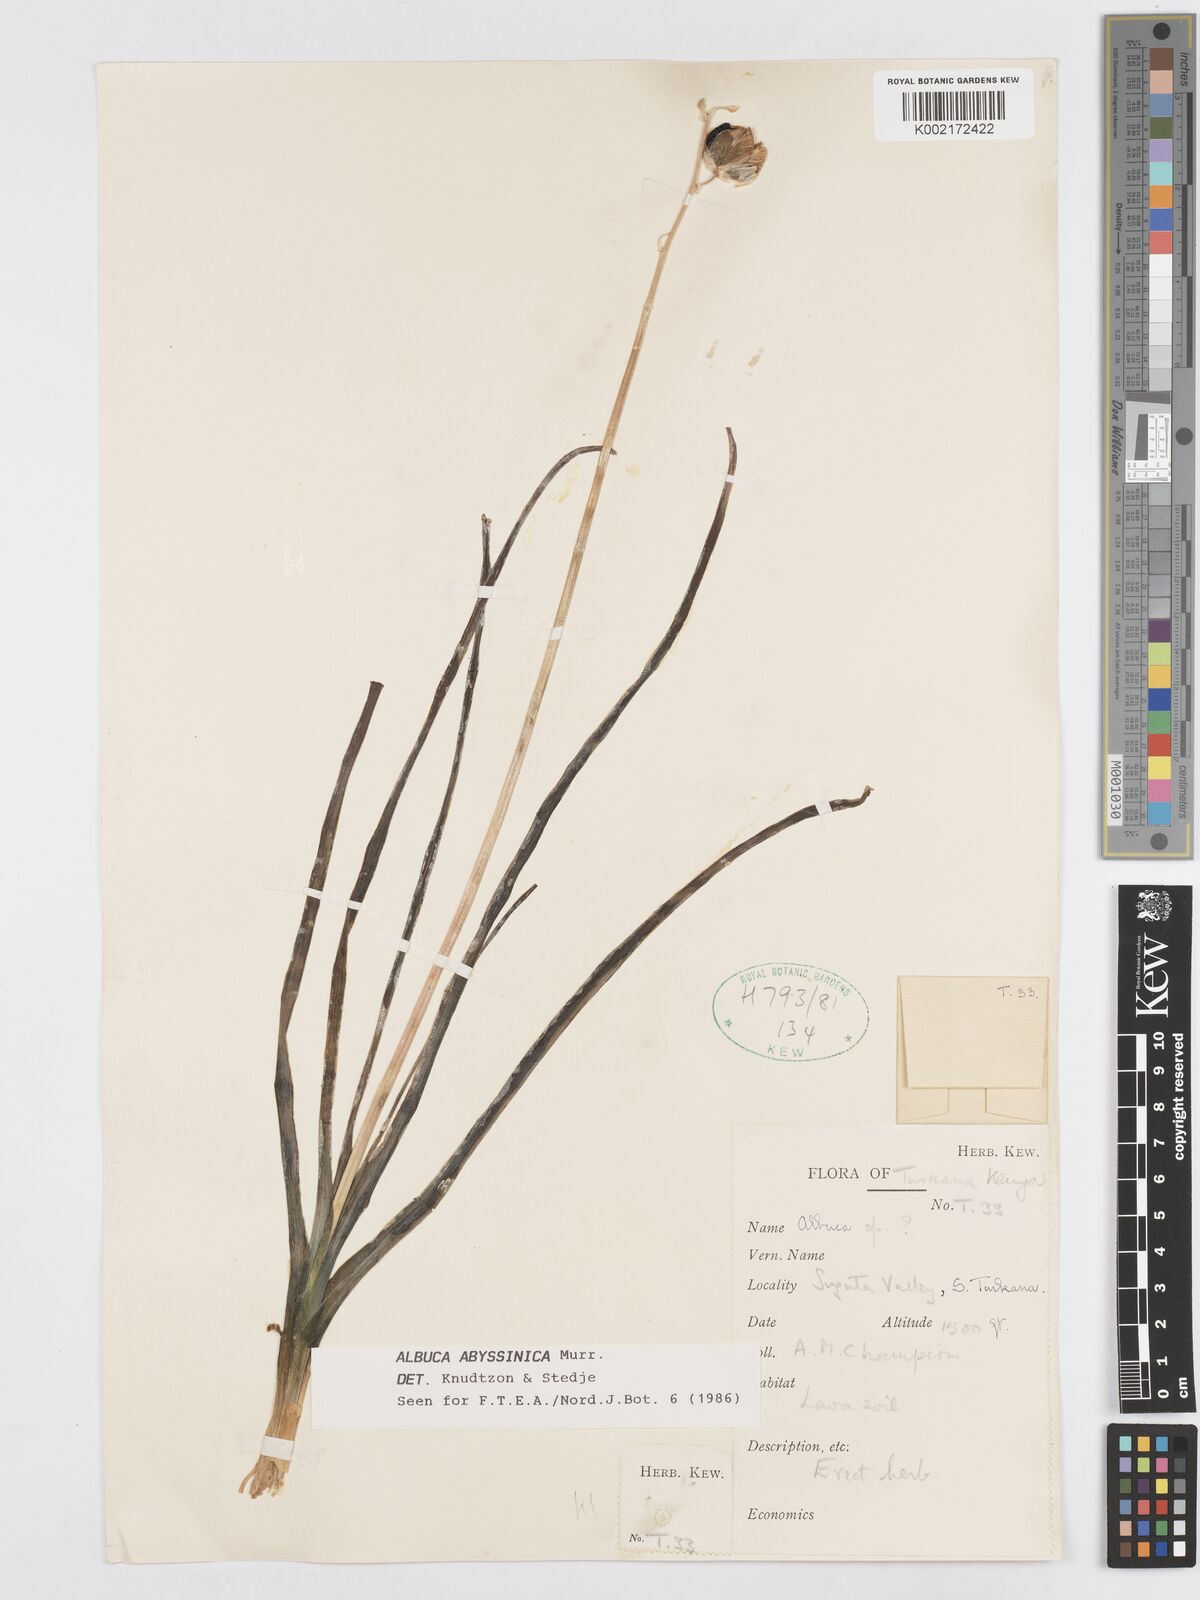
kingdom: Plantae
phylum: Tracheophyta
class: Liliopsida
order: Asparagales
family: Asparagaceae
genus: Albuca
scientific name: Albuca abyssinica
